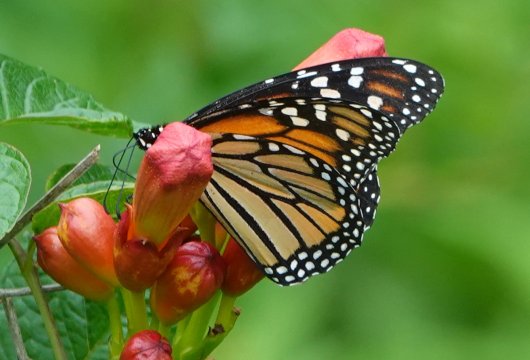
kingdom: Animalia
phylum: Arthropoda
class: Insecta
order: Lepidoptera
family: Nymphalidae
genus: Danaus
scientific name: Danaus plexippus
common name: Monarch
